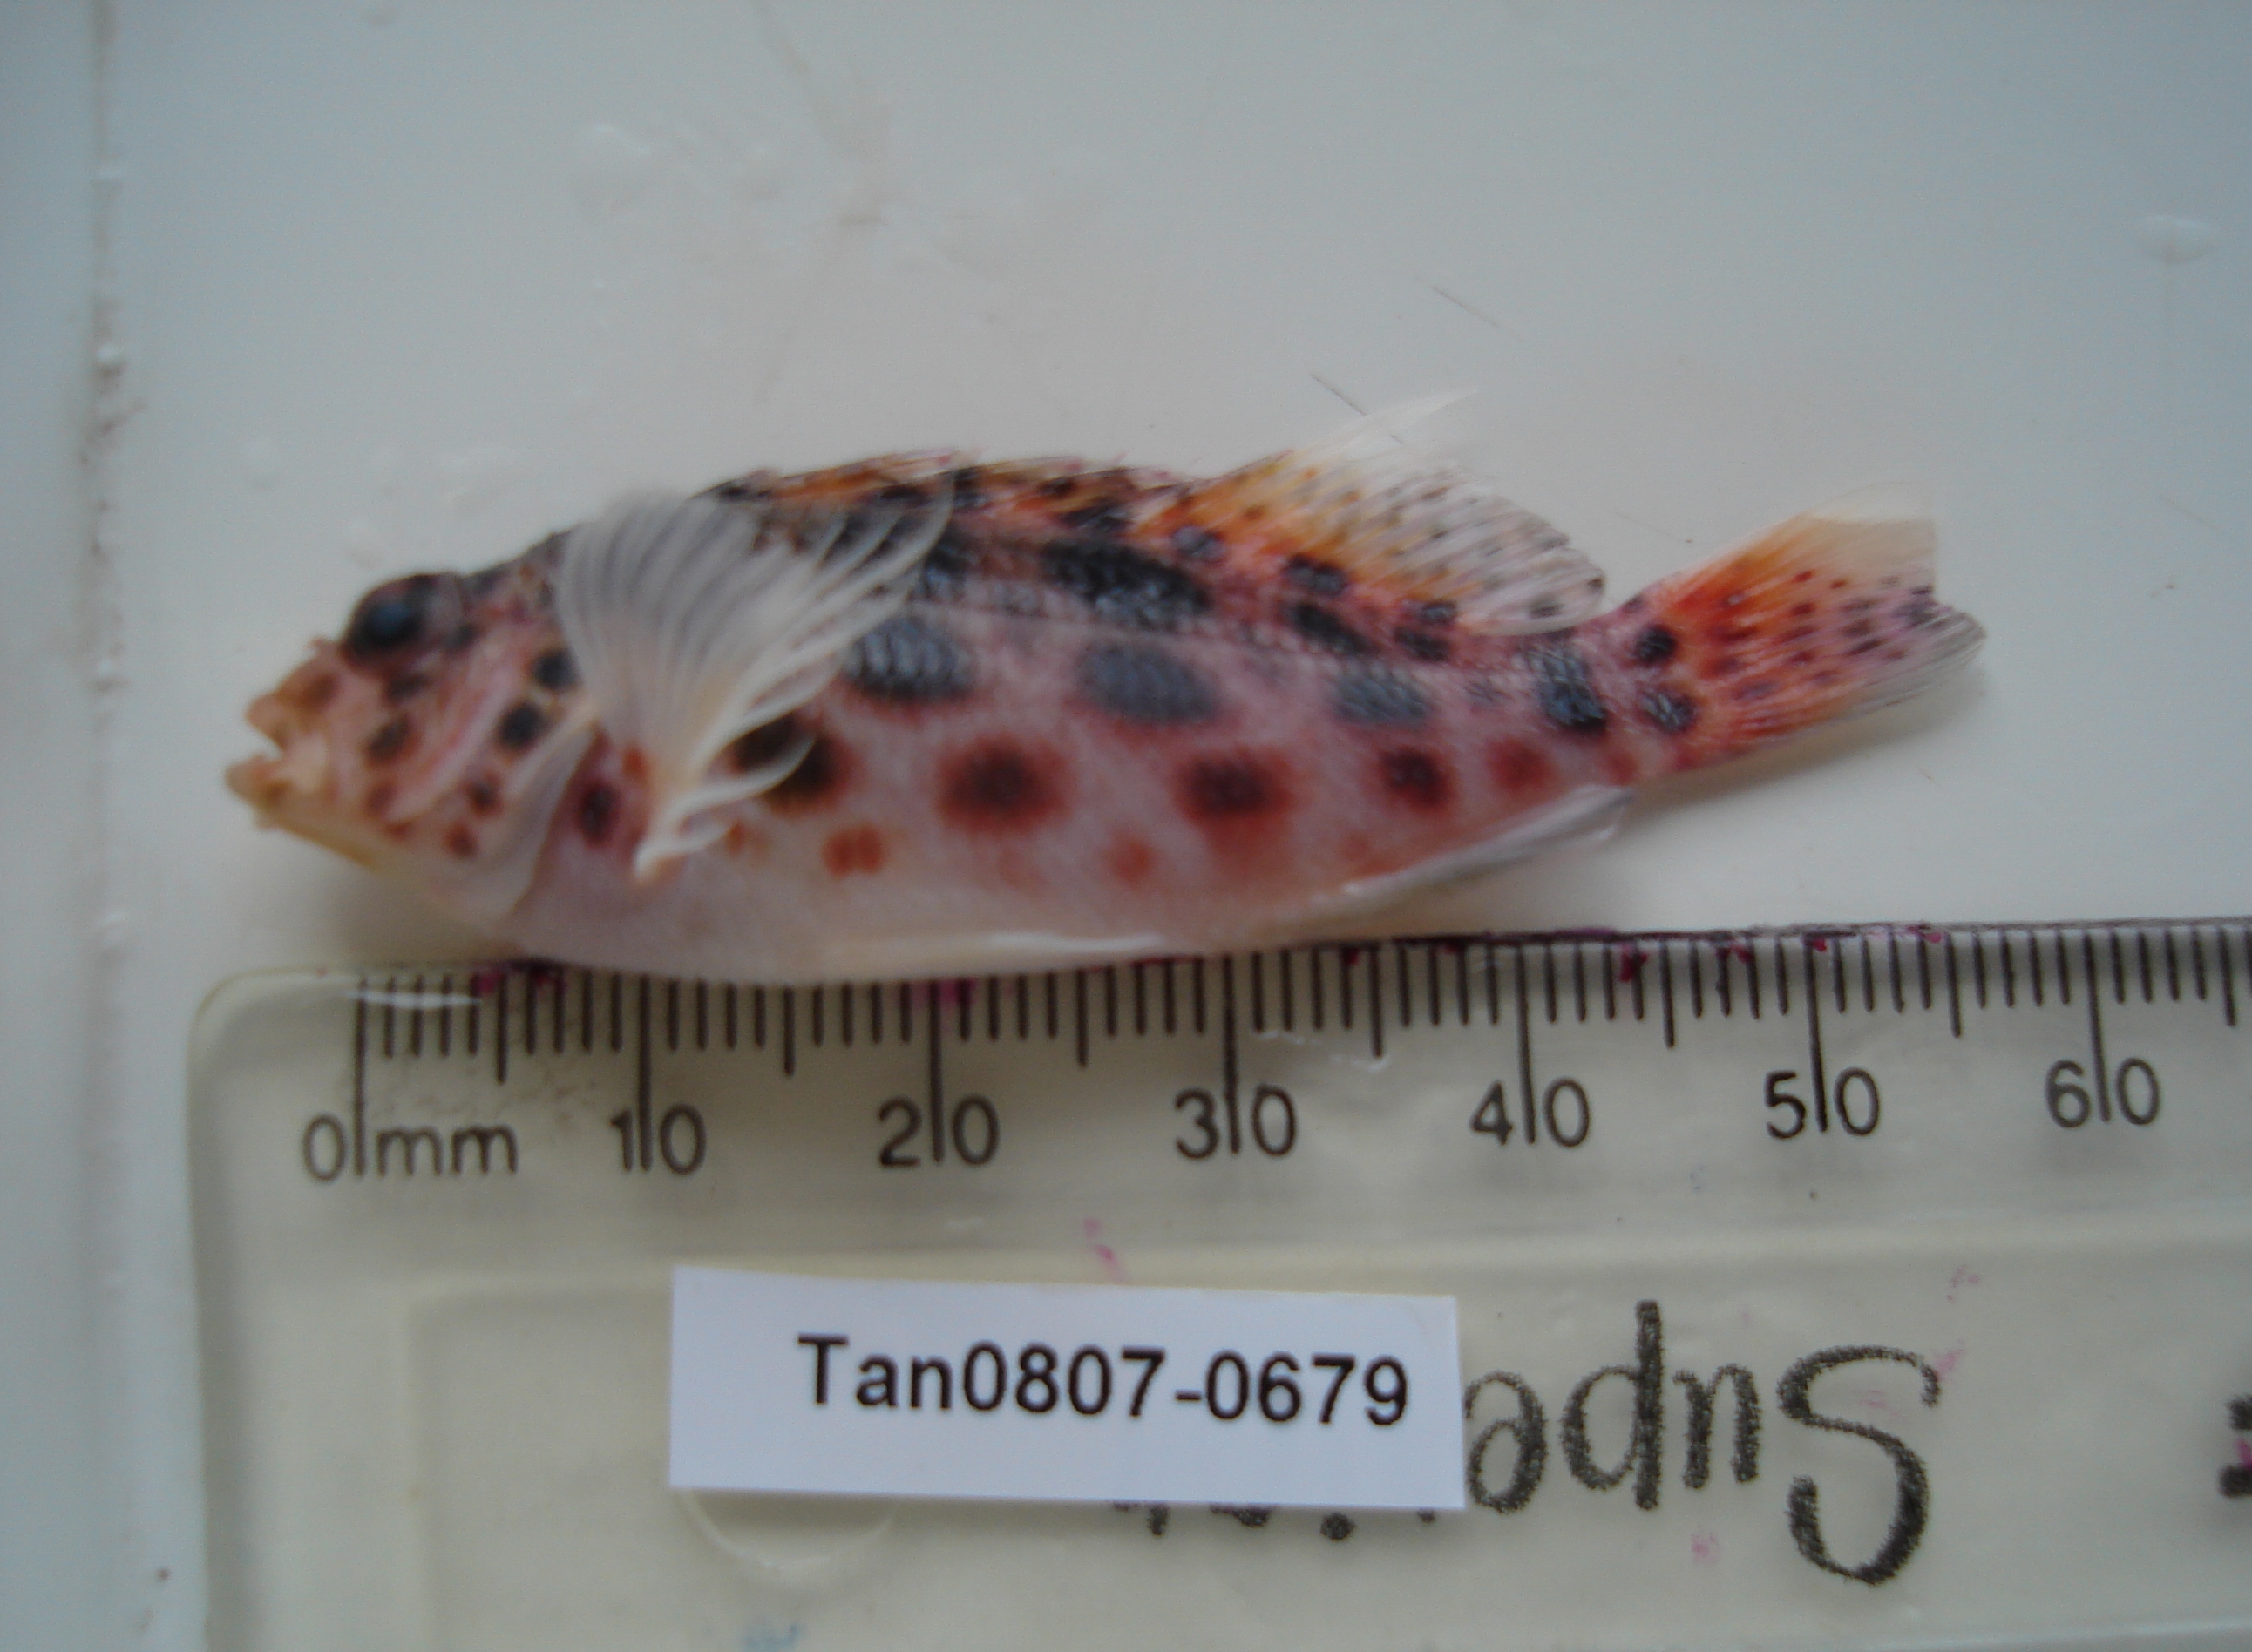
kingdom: Animalia
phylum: Chordata
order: Perciformes
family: Cirrhitidae
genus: Cirrhitichthys
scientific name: Cirrhitichthys oxycephalus
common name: Spotted hawkfish
